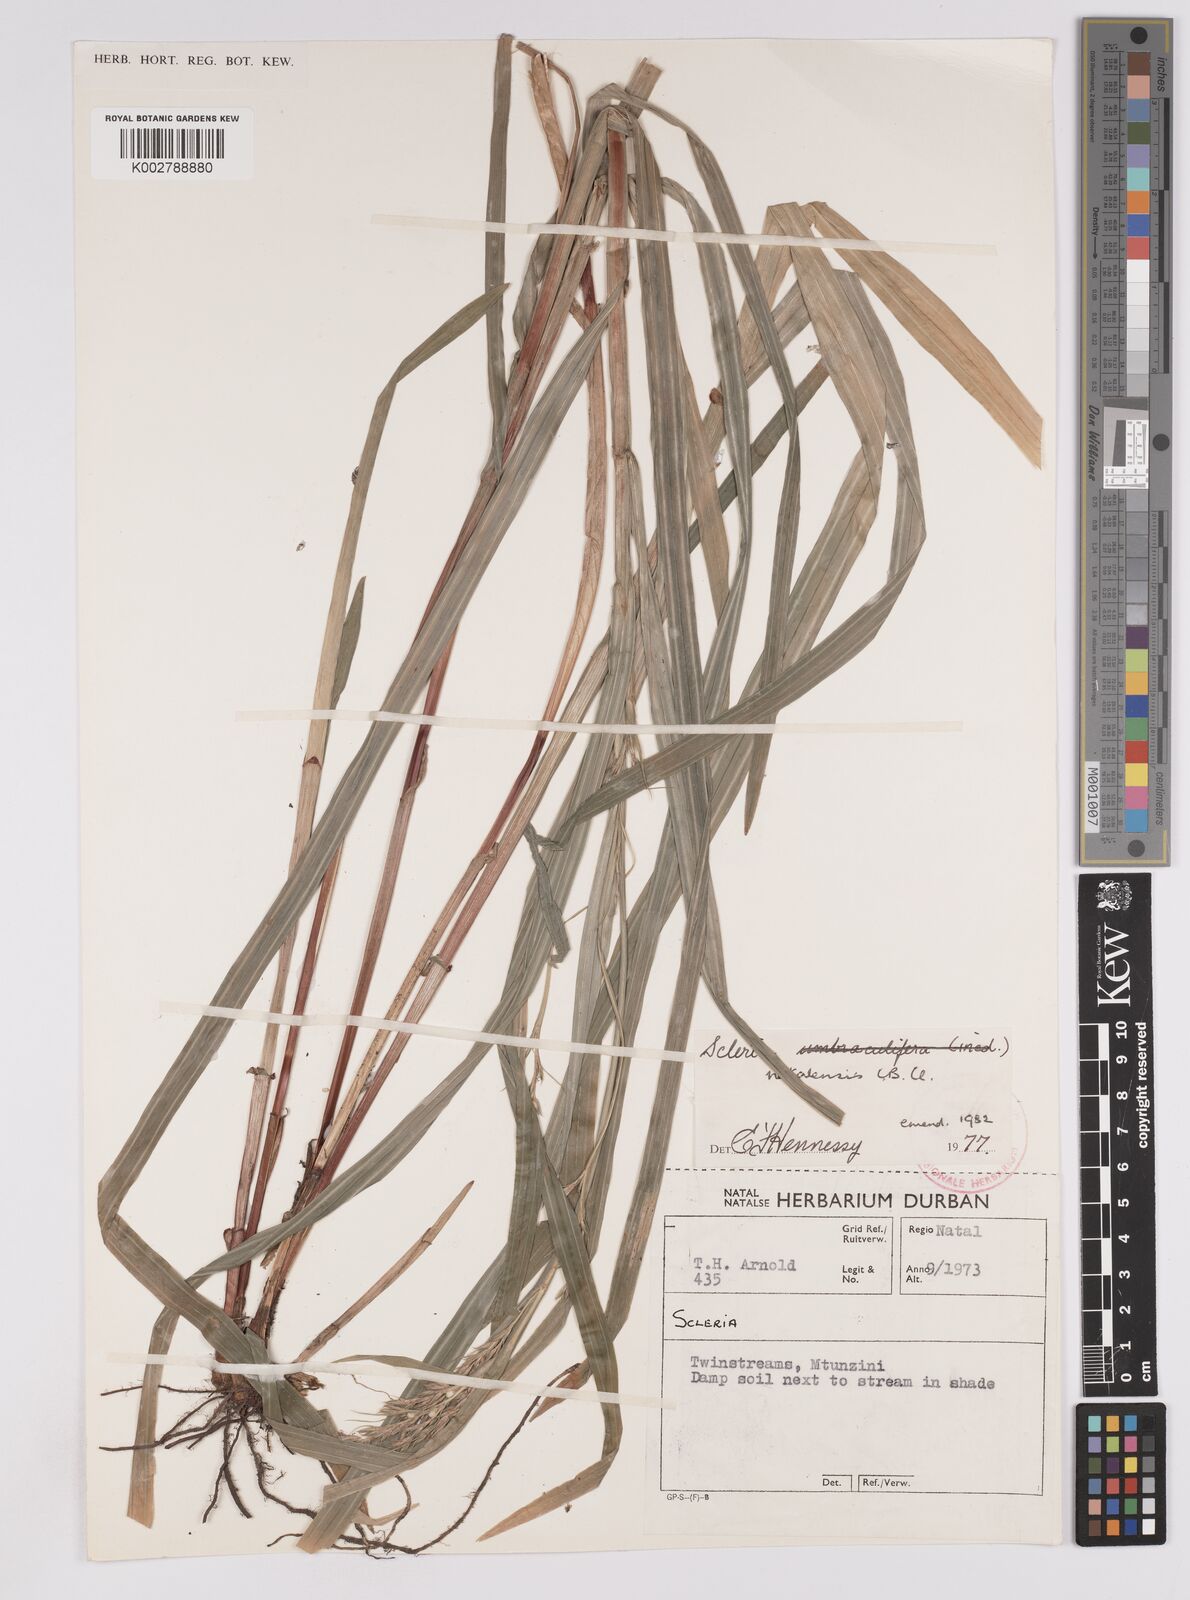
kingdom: Plantae
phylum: Tracheophyta
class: Liliopsida
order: Poales
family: Cyperaceae
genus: Scleria
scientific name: Scleria natalensis
